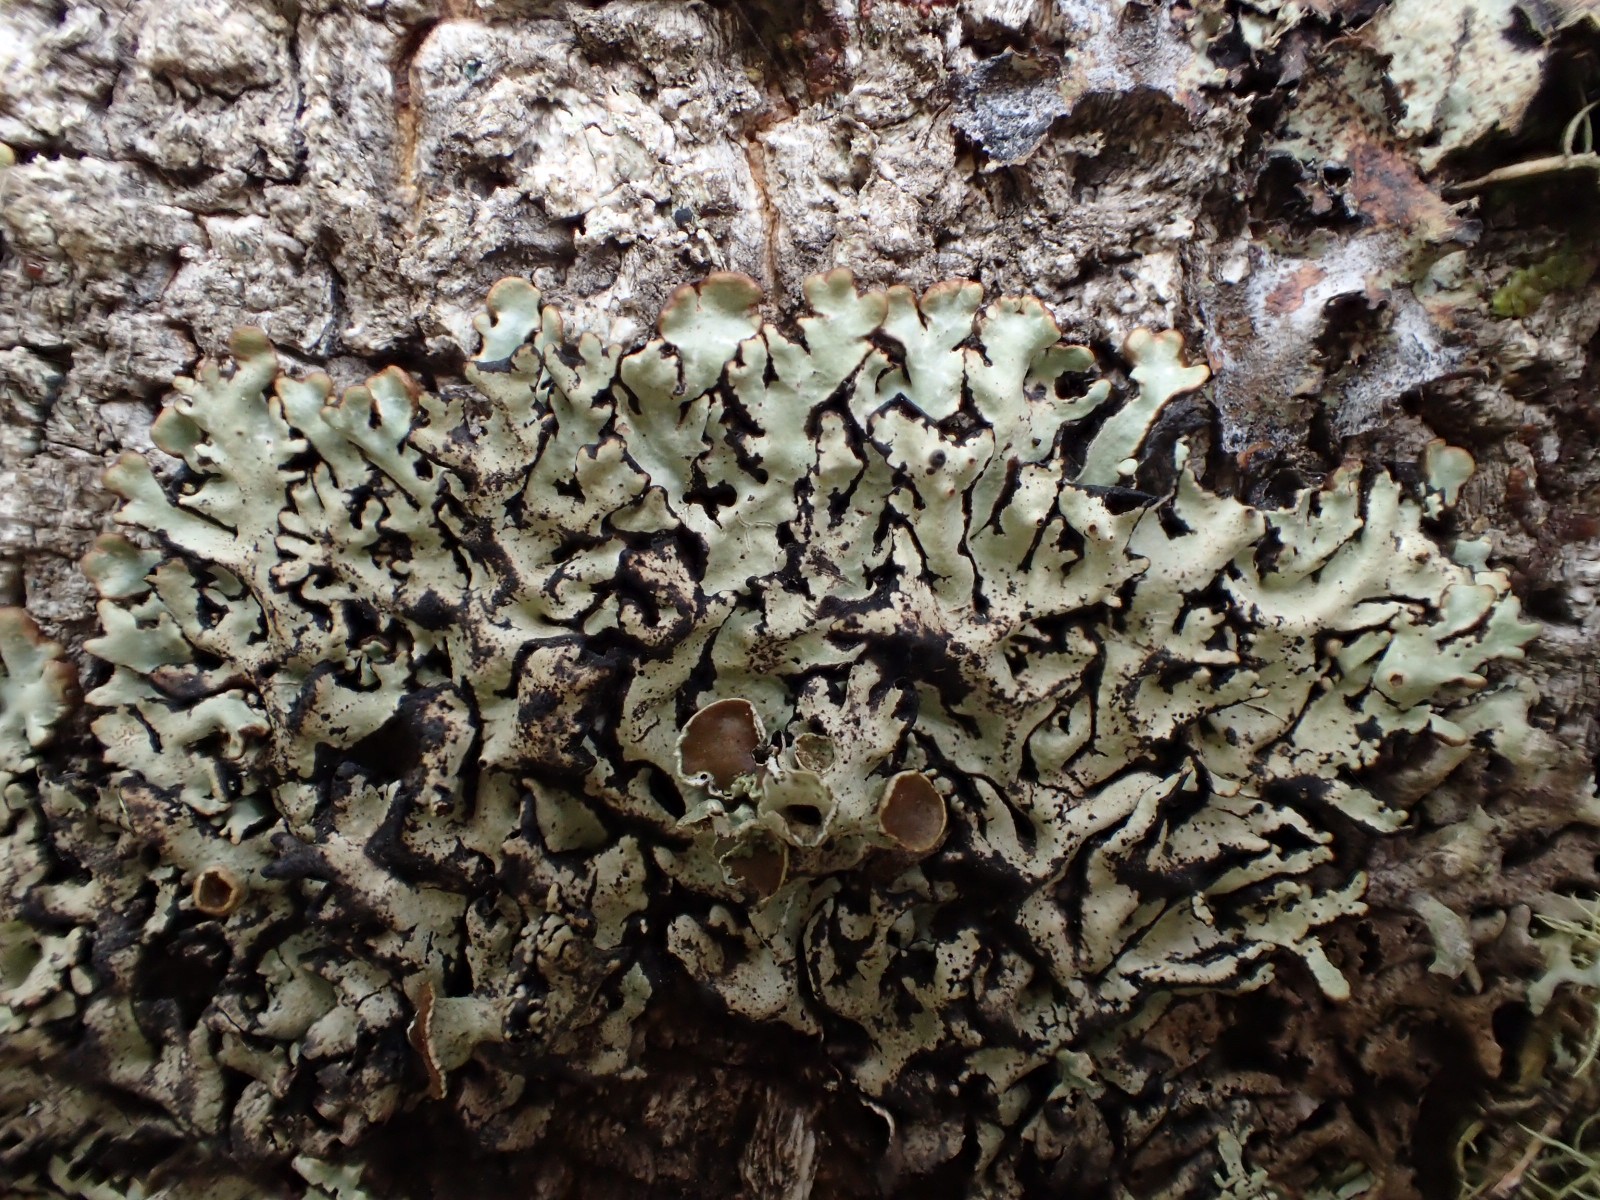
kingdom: Fungi
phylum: Ascomycota
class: Lecanoromycetes
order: Lecanorales
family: Parmeliaceae
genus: Hypogymnia
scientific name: Hypogymnia physodes
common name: almindelig kvistlav
